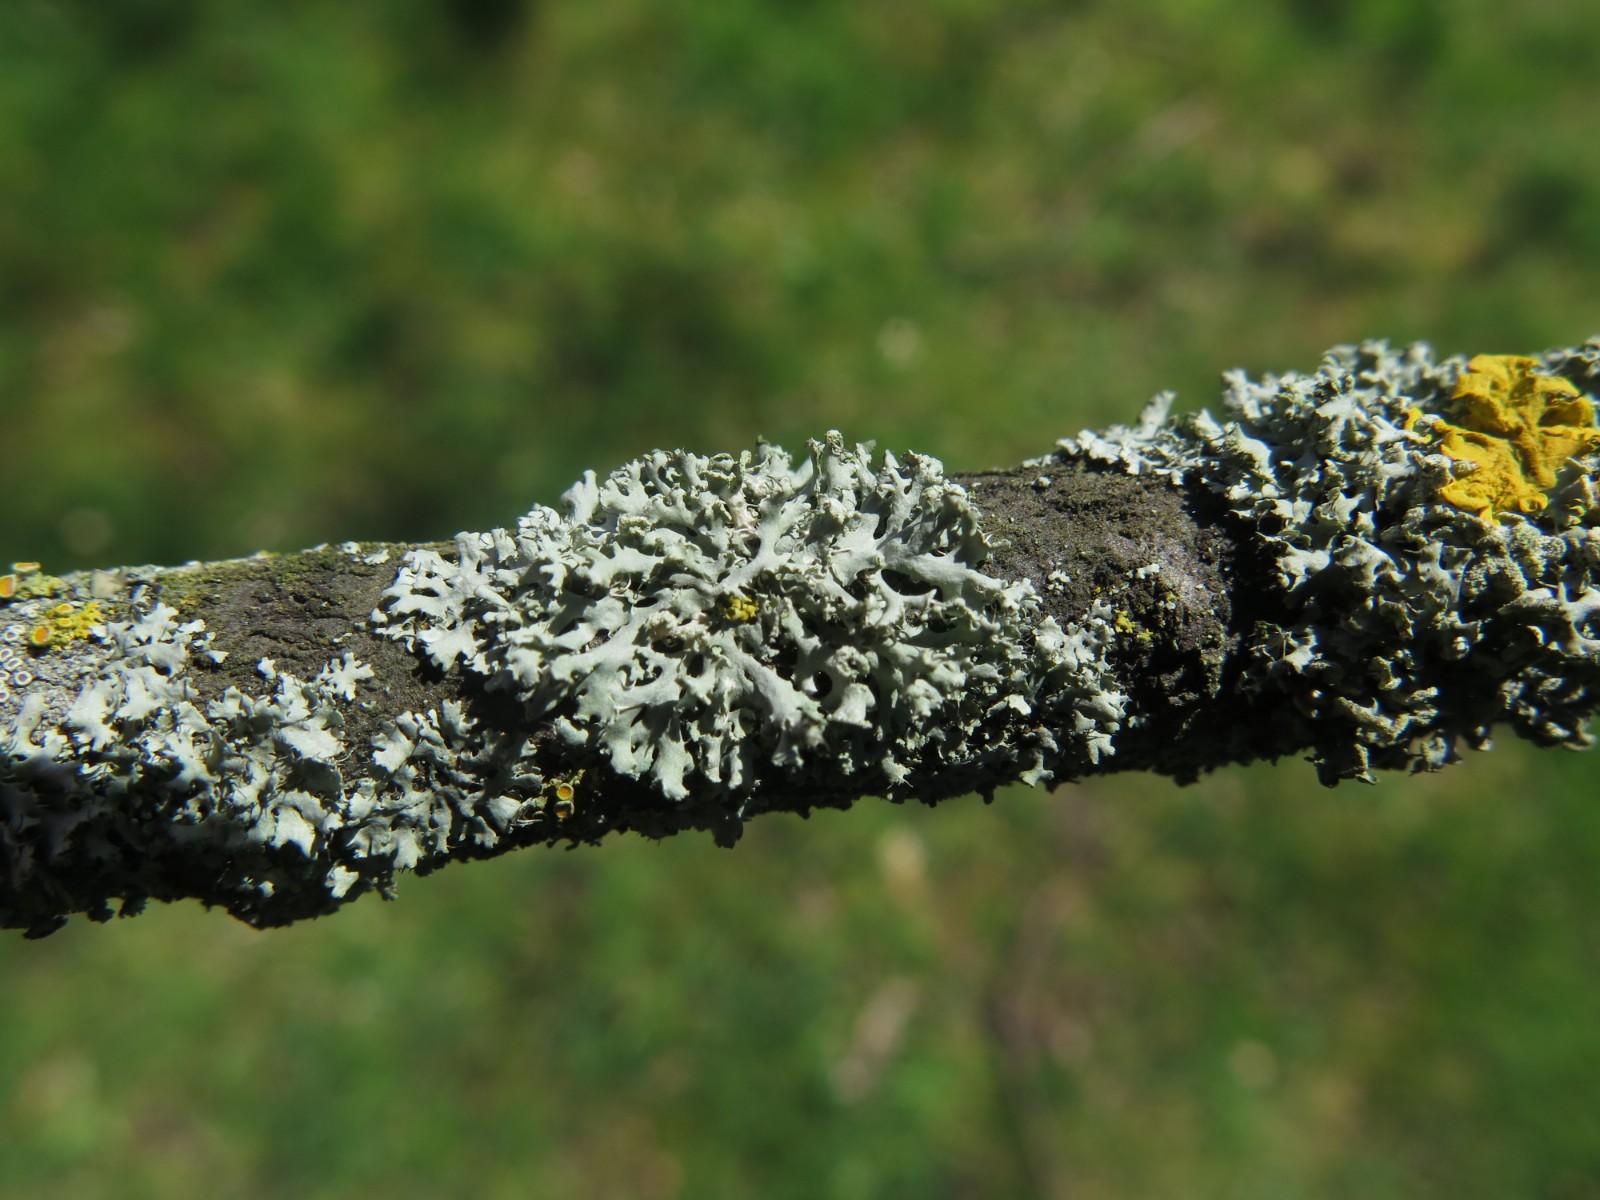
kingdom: Fungi
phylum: Ascomycota
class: Lecanoromycetes
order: Caliciales
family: Physciaceae
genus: Physcia
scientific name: Physcia adscendens
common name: hætte-rosetlav
